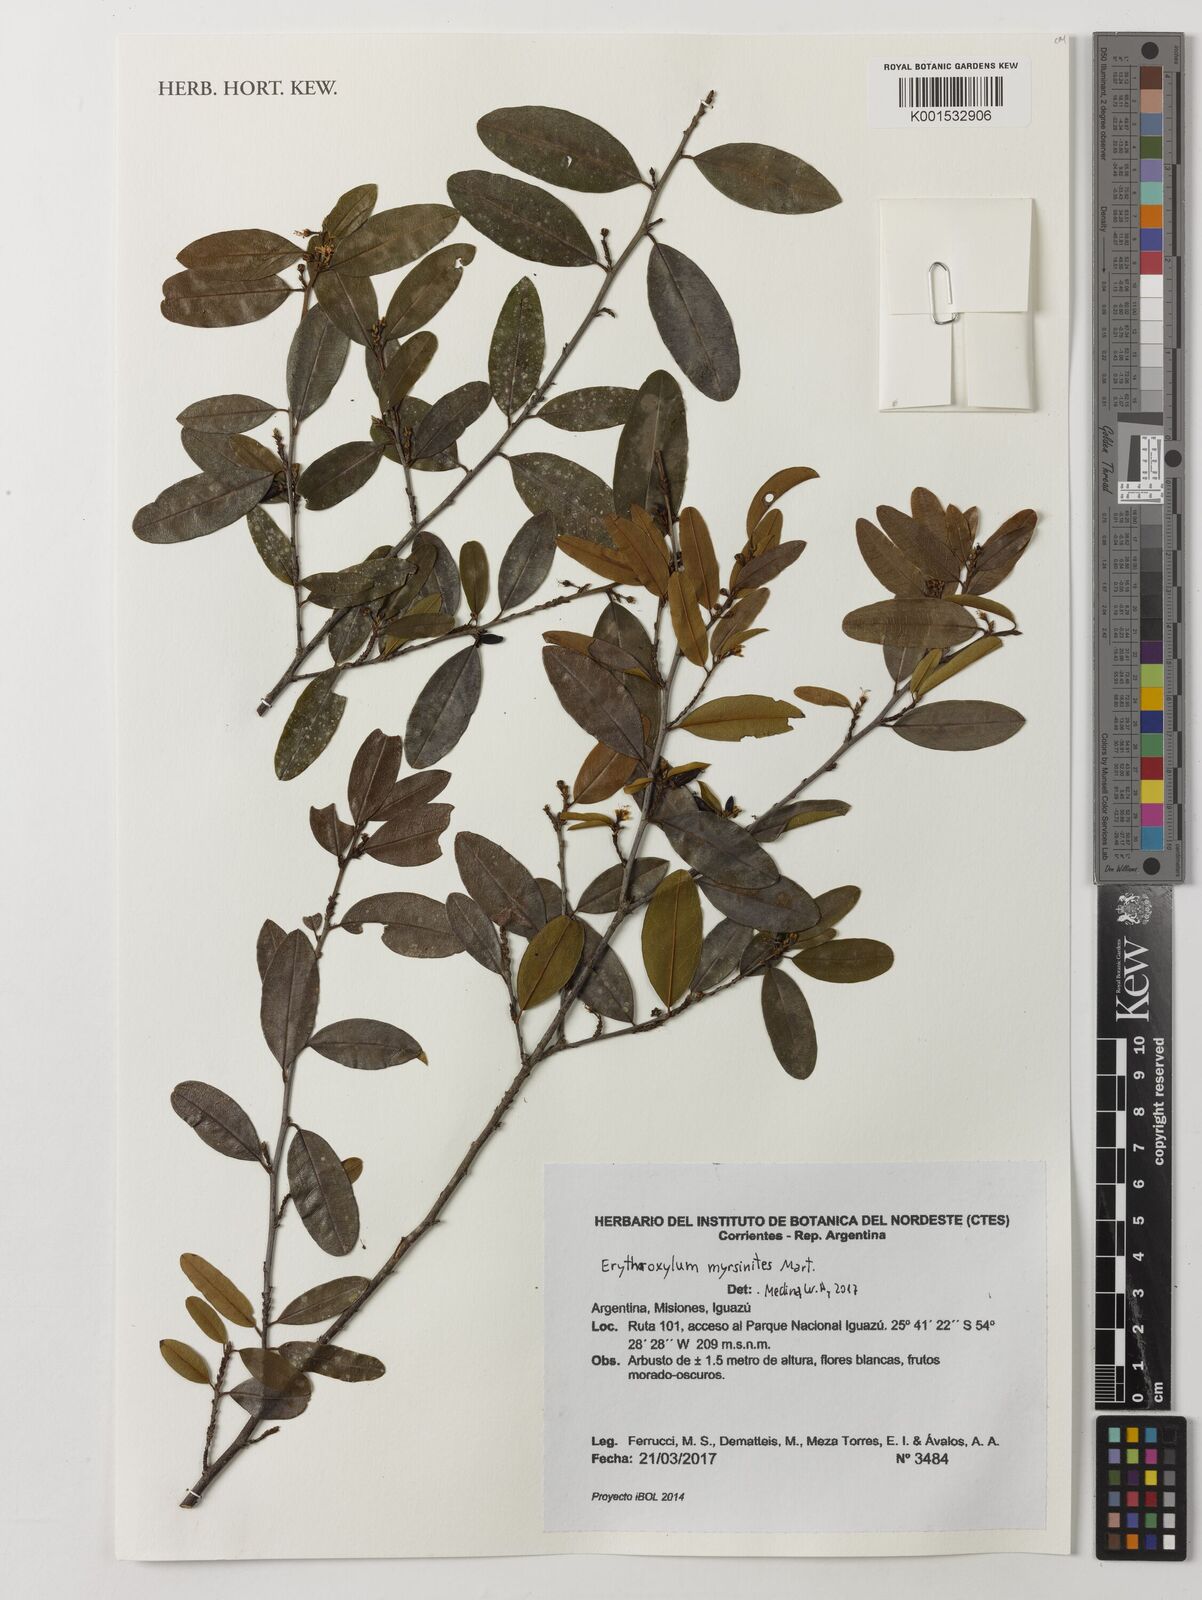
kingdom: Plantae
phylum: Tracheophyta
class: Magnoliopsida
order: Malpighiales
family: Erythroxylaceae
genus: Erythroxylum
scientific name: Erythroxylum myrsinites
